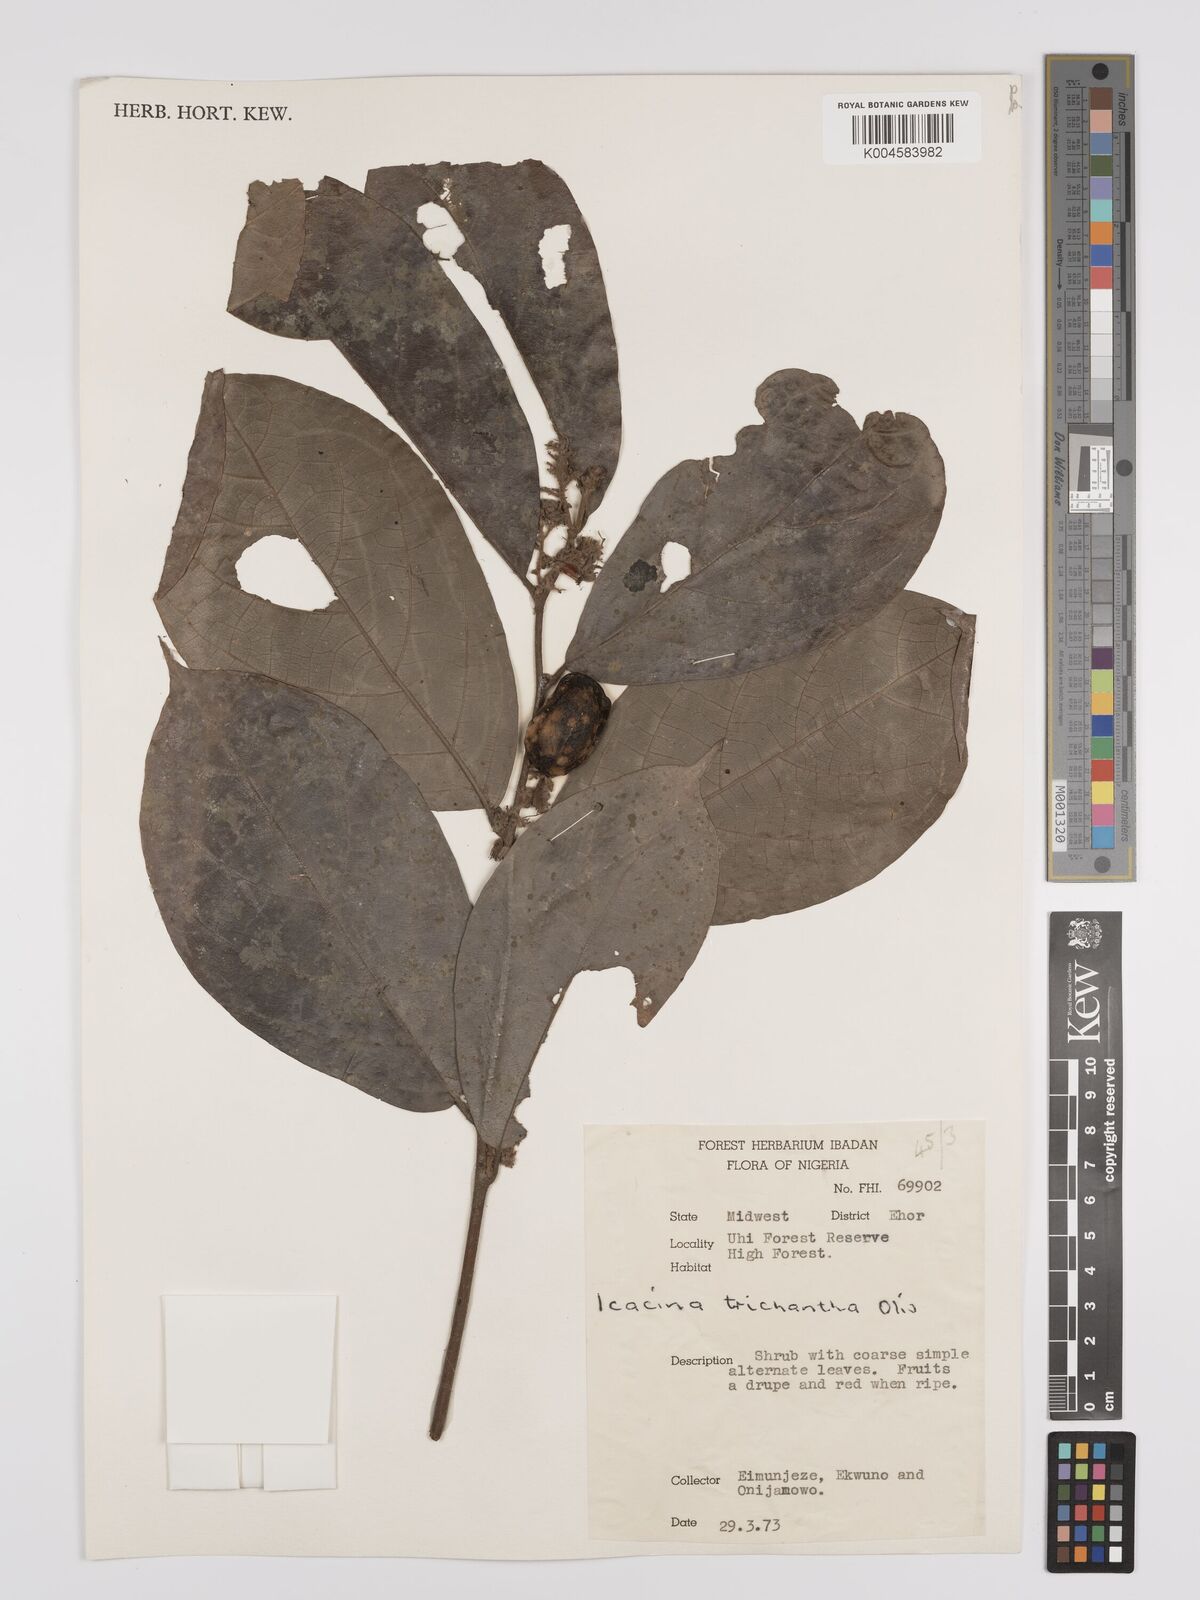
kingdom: Plantae
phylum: Tracheophyta
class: Magnoliopsida
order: Icacinales
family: Icacinaceae
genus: Icacina
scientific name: Icacina trichantha
